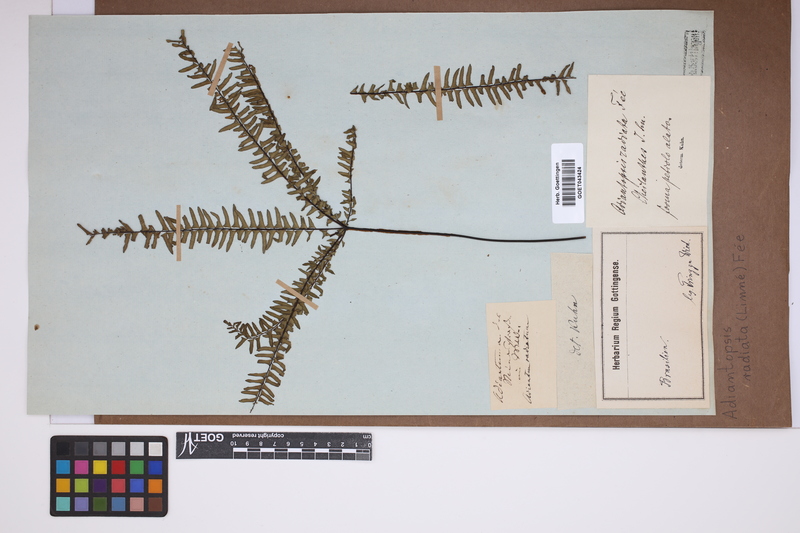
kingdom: Plantae
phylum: Tracheophyta
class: Polypodiopsida
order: Polypodiales
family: Pteridaceae
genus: Adiantopsis
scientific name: Adiantopsis radiata
